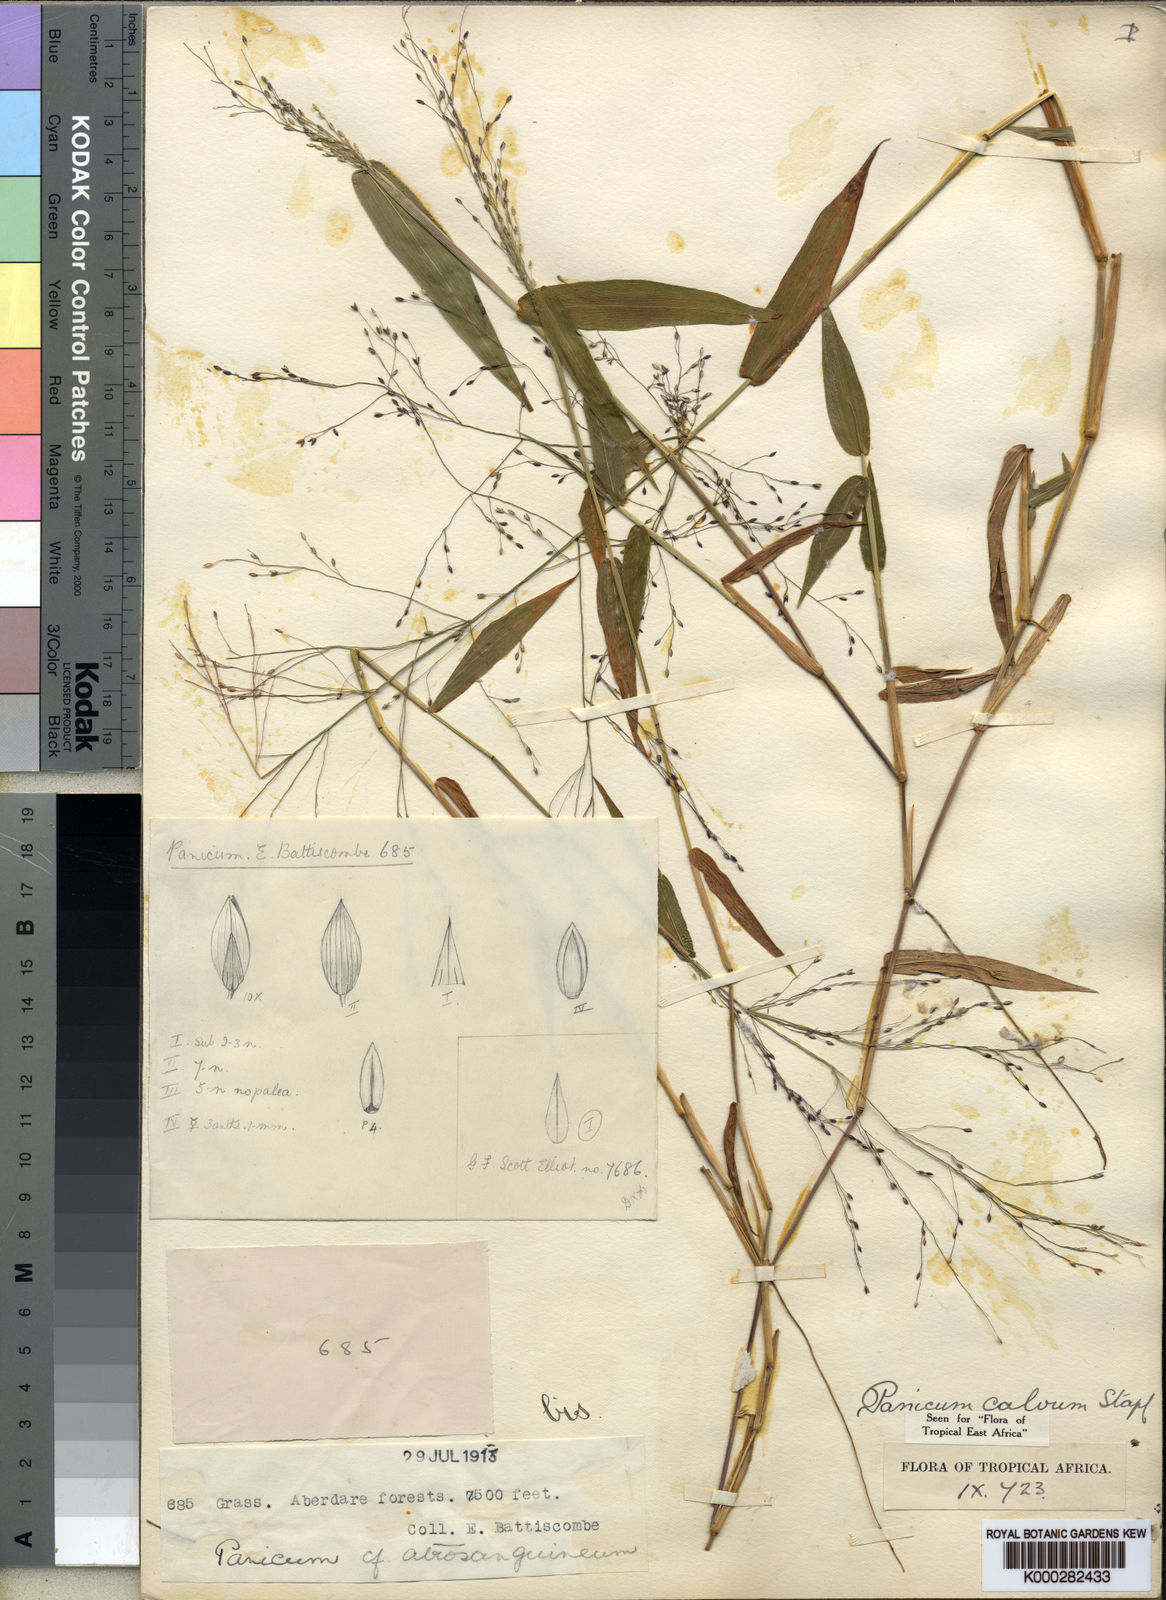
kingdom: Plantae
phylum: Tracheophyta
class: Liliopsida
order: Poales
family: Poaceae
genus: Panicum
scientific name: Panicum calvum
